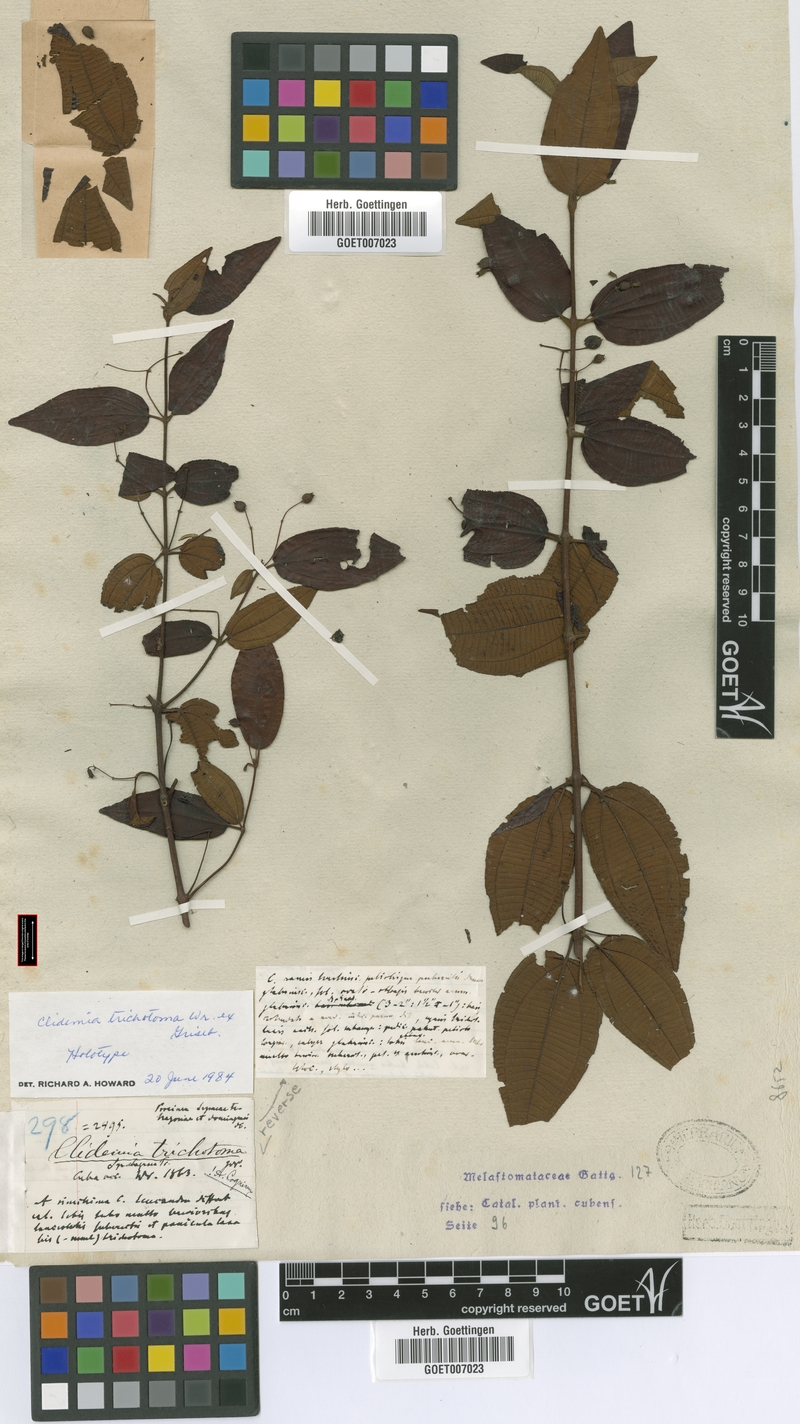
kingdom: Plantae
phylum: Tracheophyta
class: Magnoliopsida
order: Myrtales
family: Melastomataceae
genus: Miconia
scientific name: Miconia hirticalyx
